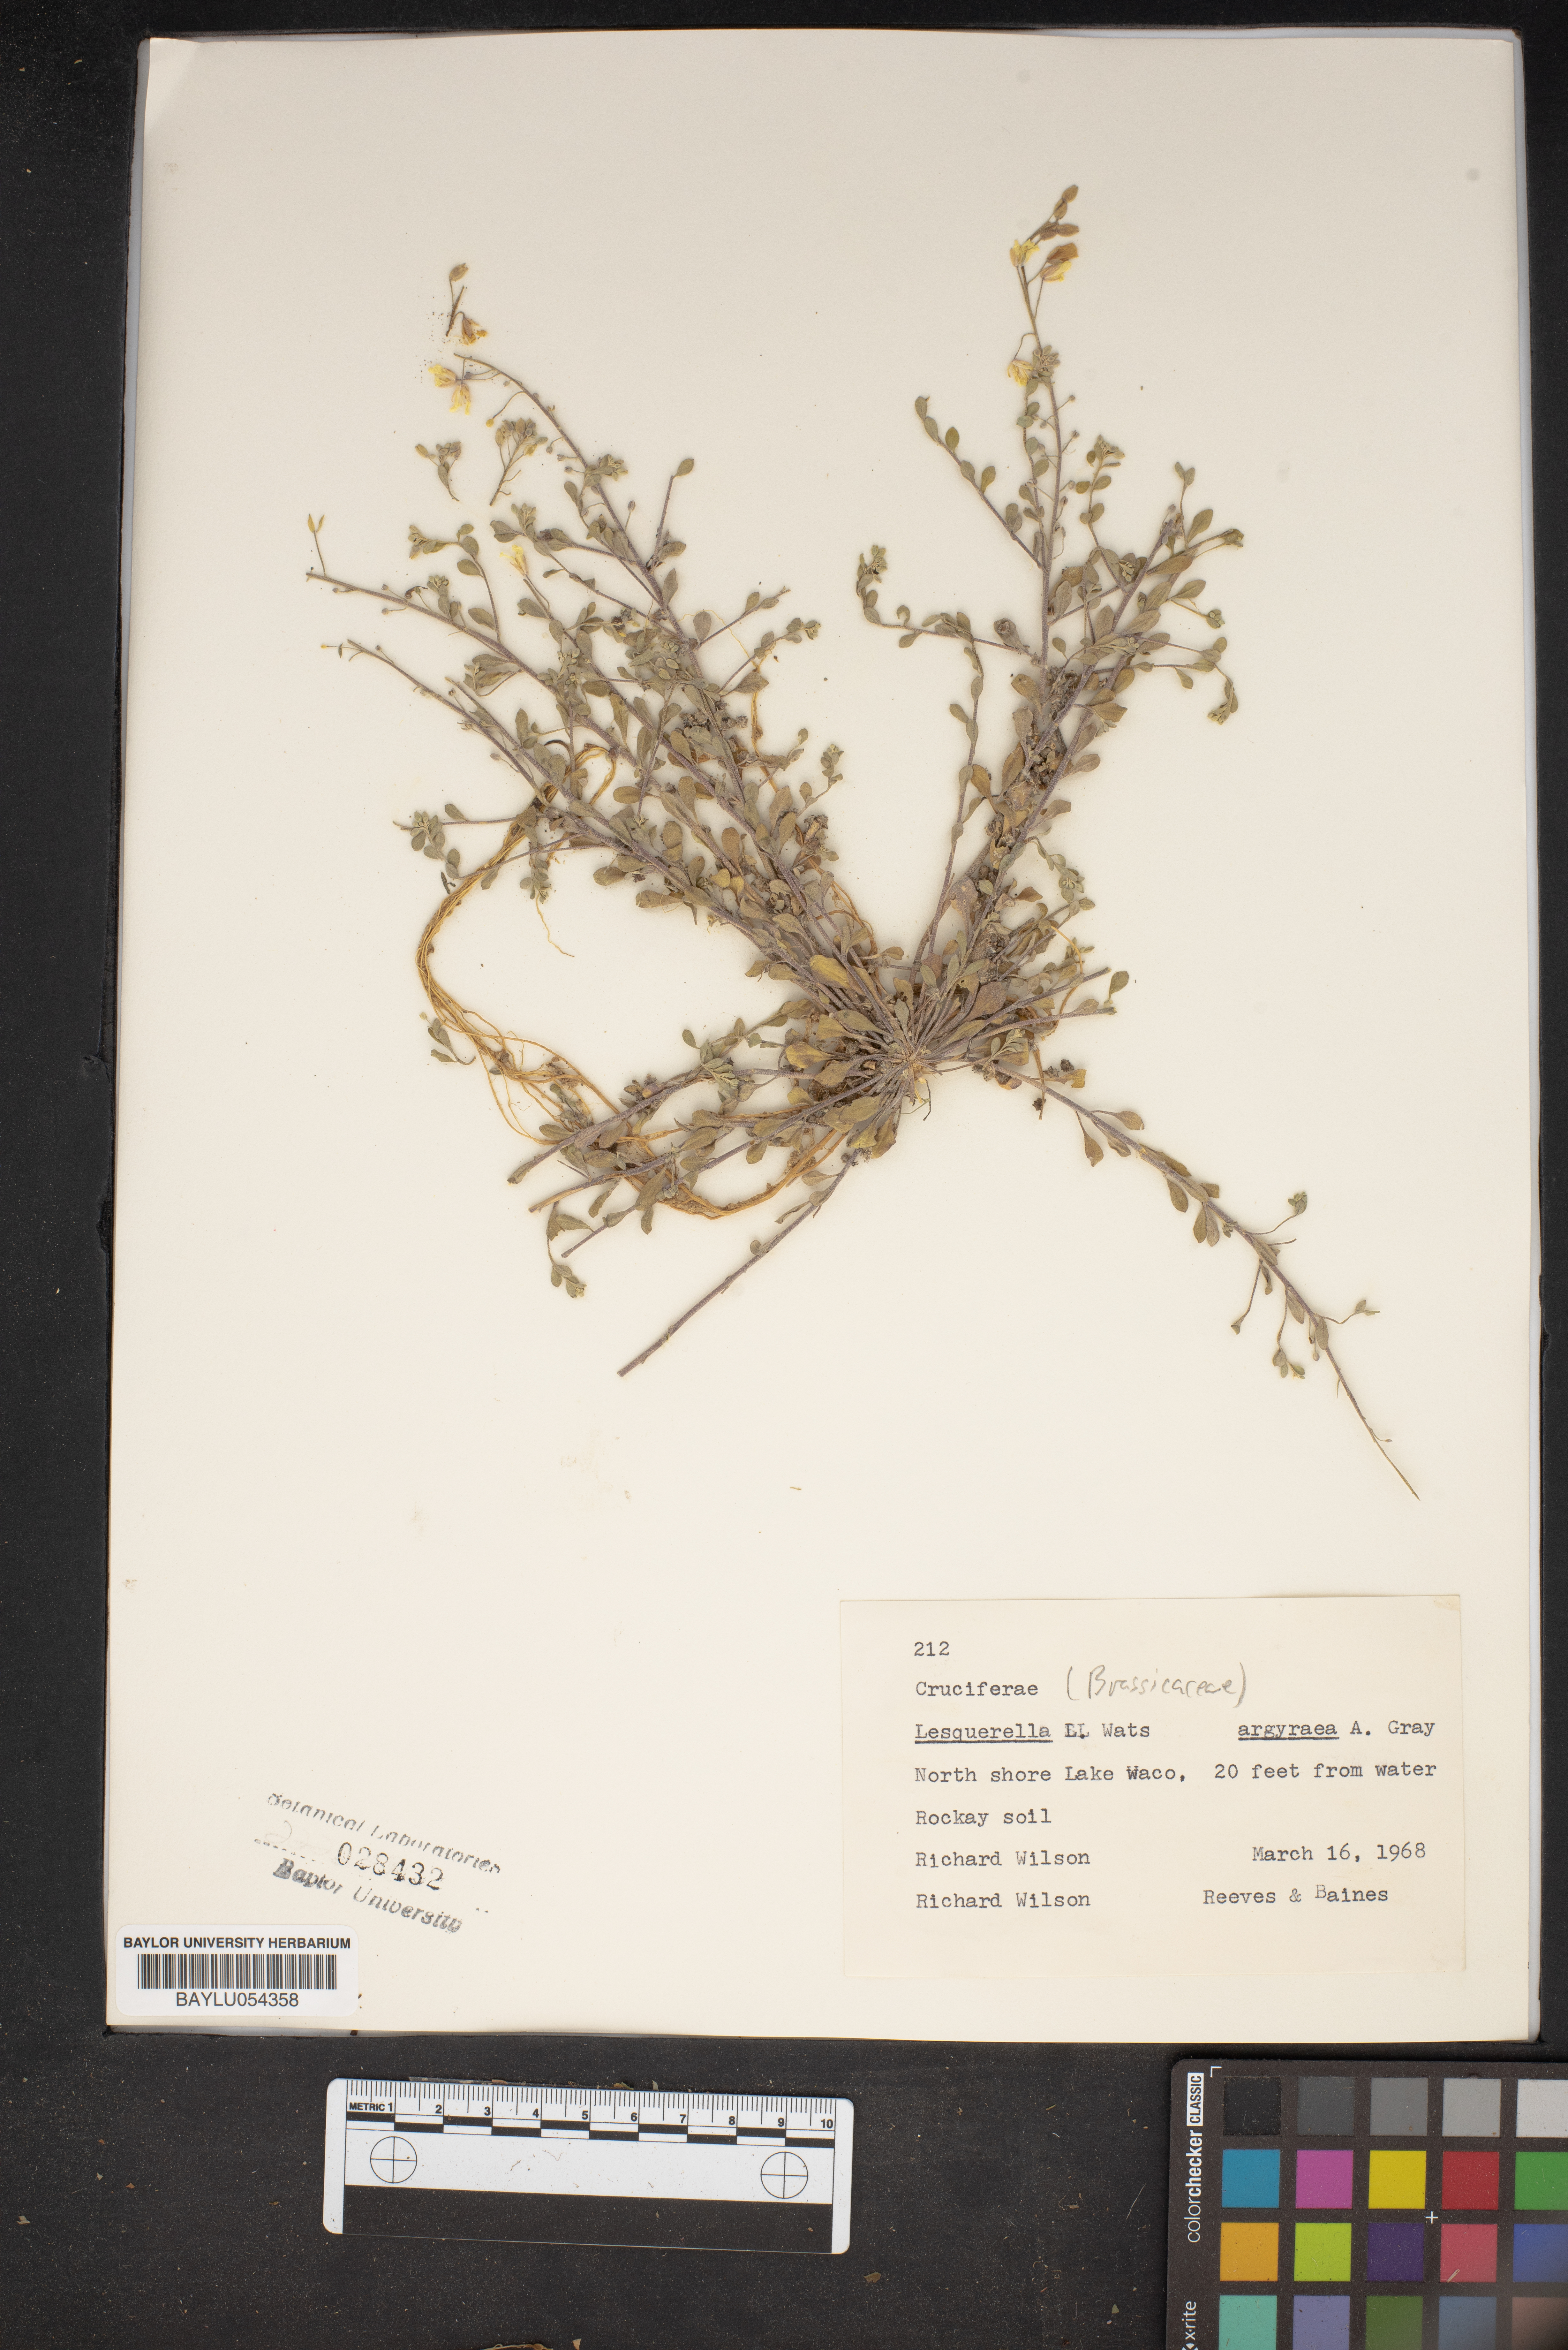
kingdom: Plantae
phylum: Tracheophyta
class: Magnoliopsida
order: Brassicales
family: Brassicaceae
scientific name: Brassicaceae
